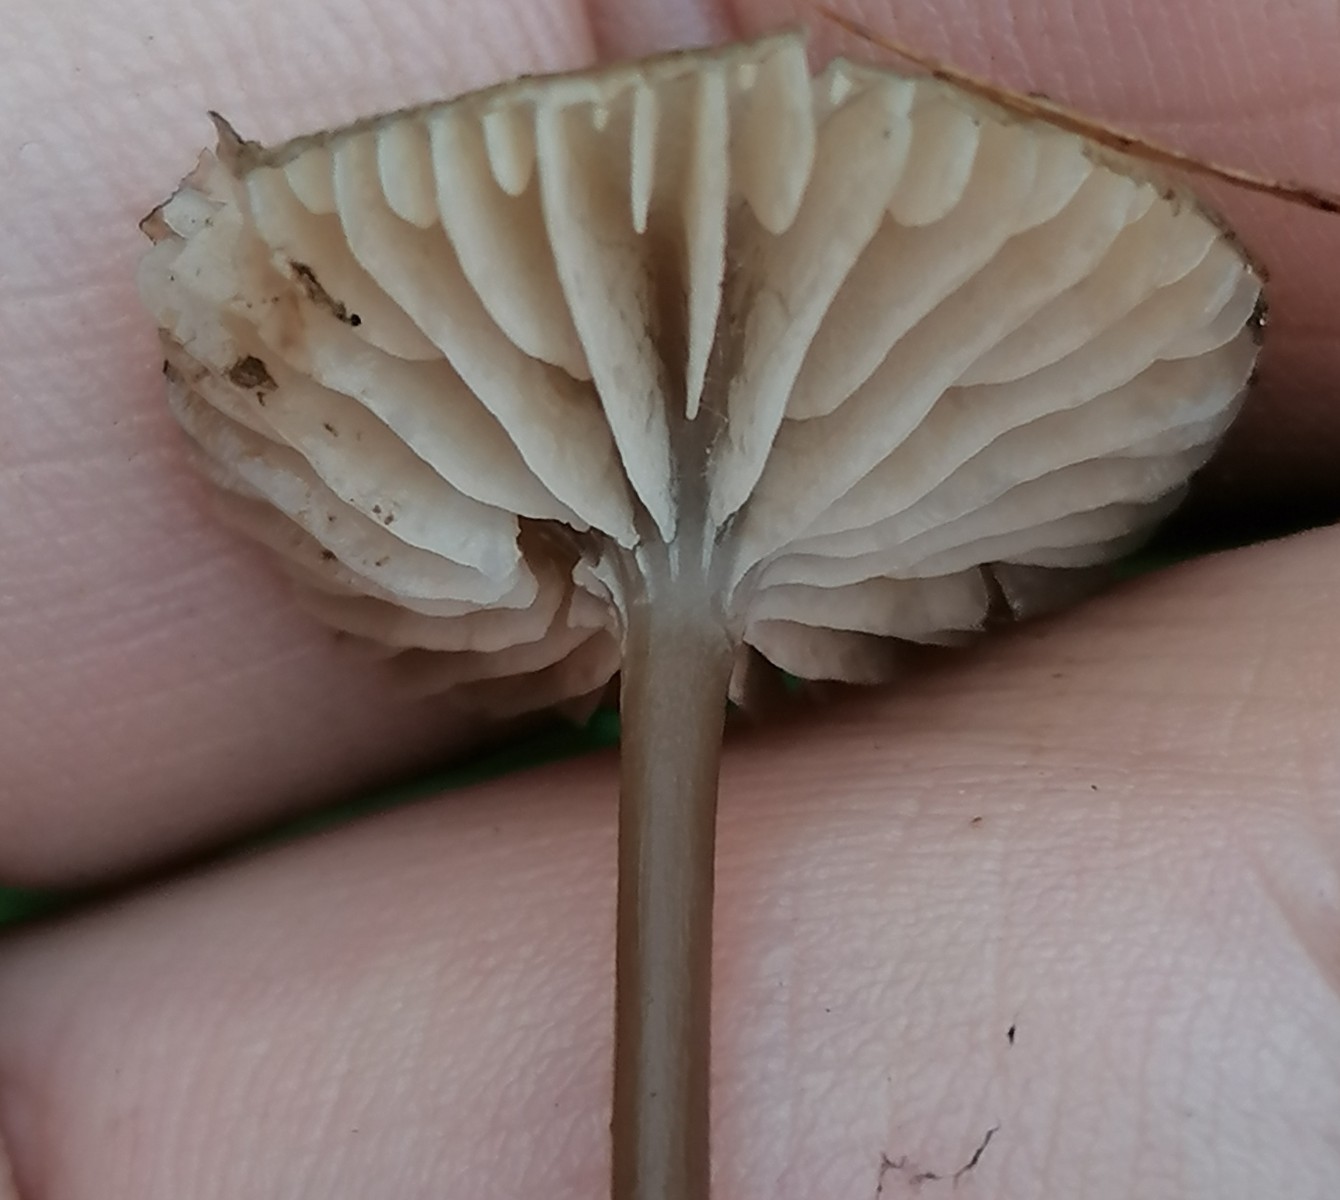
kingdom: Fungi
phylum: Basidiomycota
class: Agaricomycetes
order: Agaricales
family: Entolomataceae
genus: Entoloma
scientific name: Entoloma incarnatofuscescens
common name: tragt-rødblad
